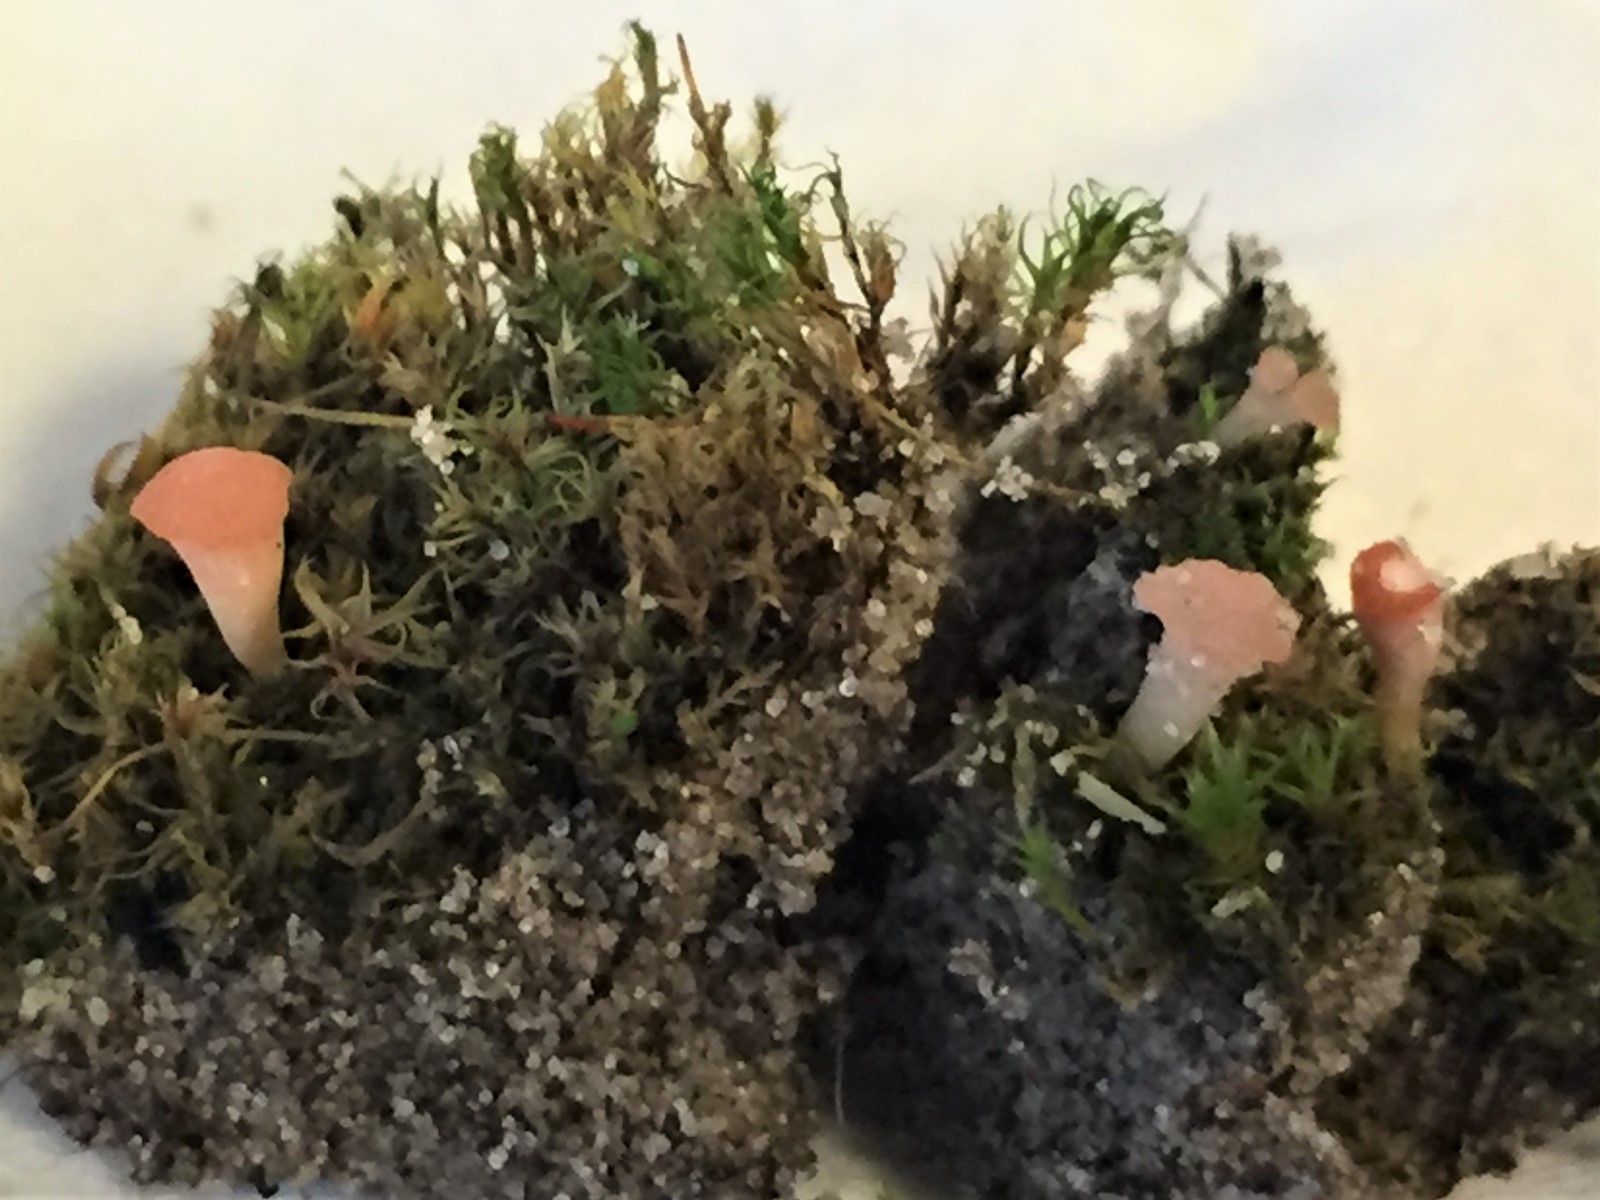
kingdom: Fungi
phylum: Ascomycota
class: Leotiomycetes
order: Helotiales
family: Hyaloscyphaceae
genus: Roseodiscus
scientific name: Roseodiscus formosus
